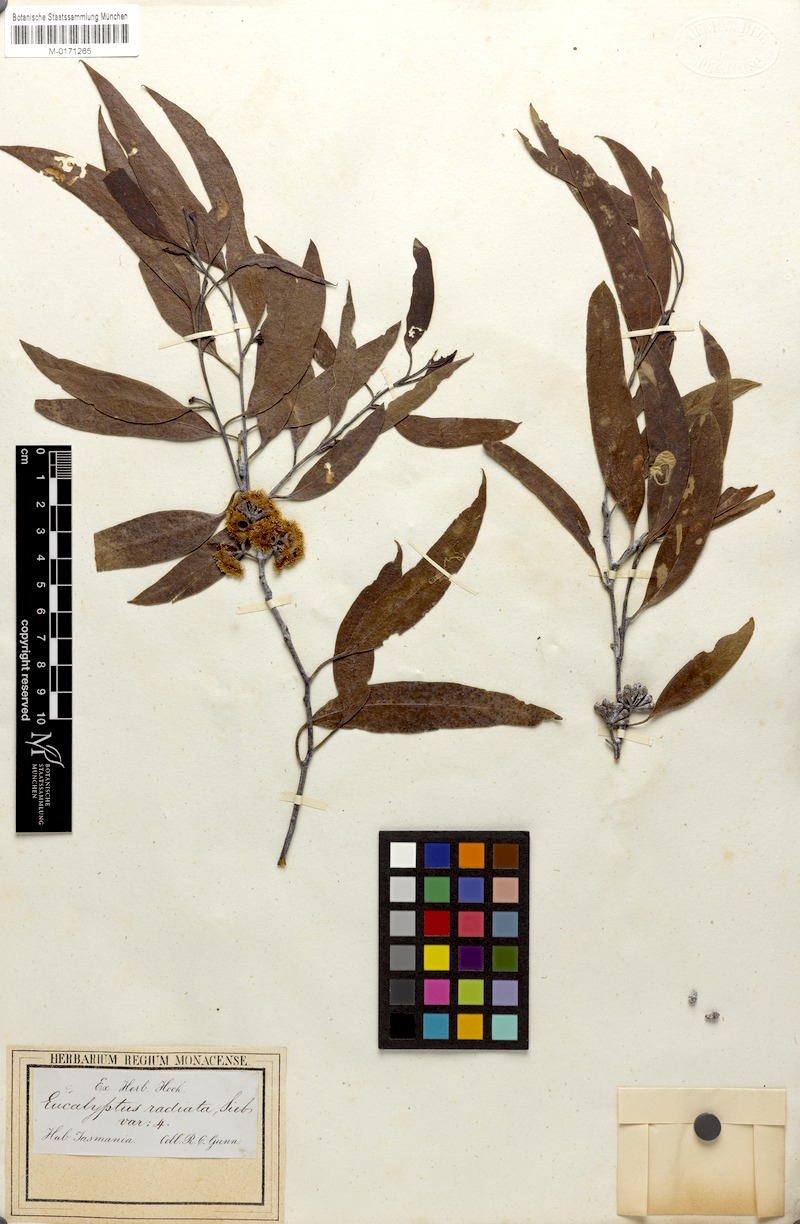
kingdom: Plantae
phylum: Tracheophyta
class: Magnoliopsida
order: Myrtales
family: Myrtaceae
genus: Eucalyptus
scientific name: Eucalyptus radiata
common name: Narrow-leaved-peppermint
